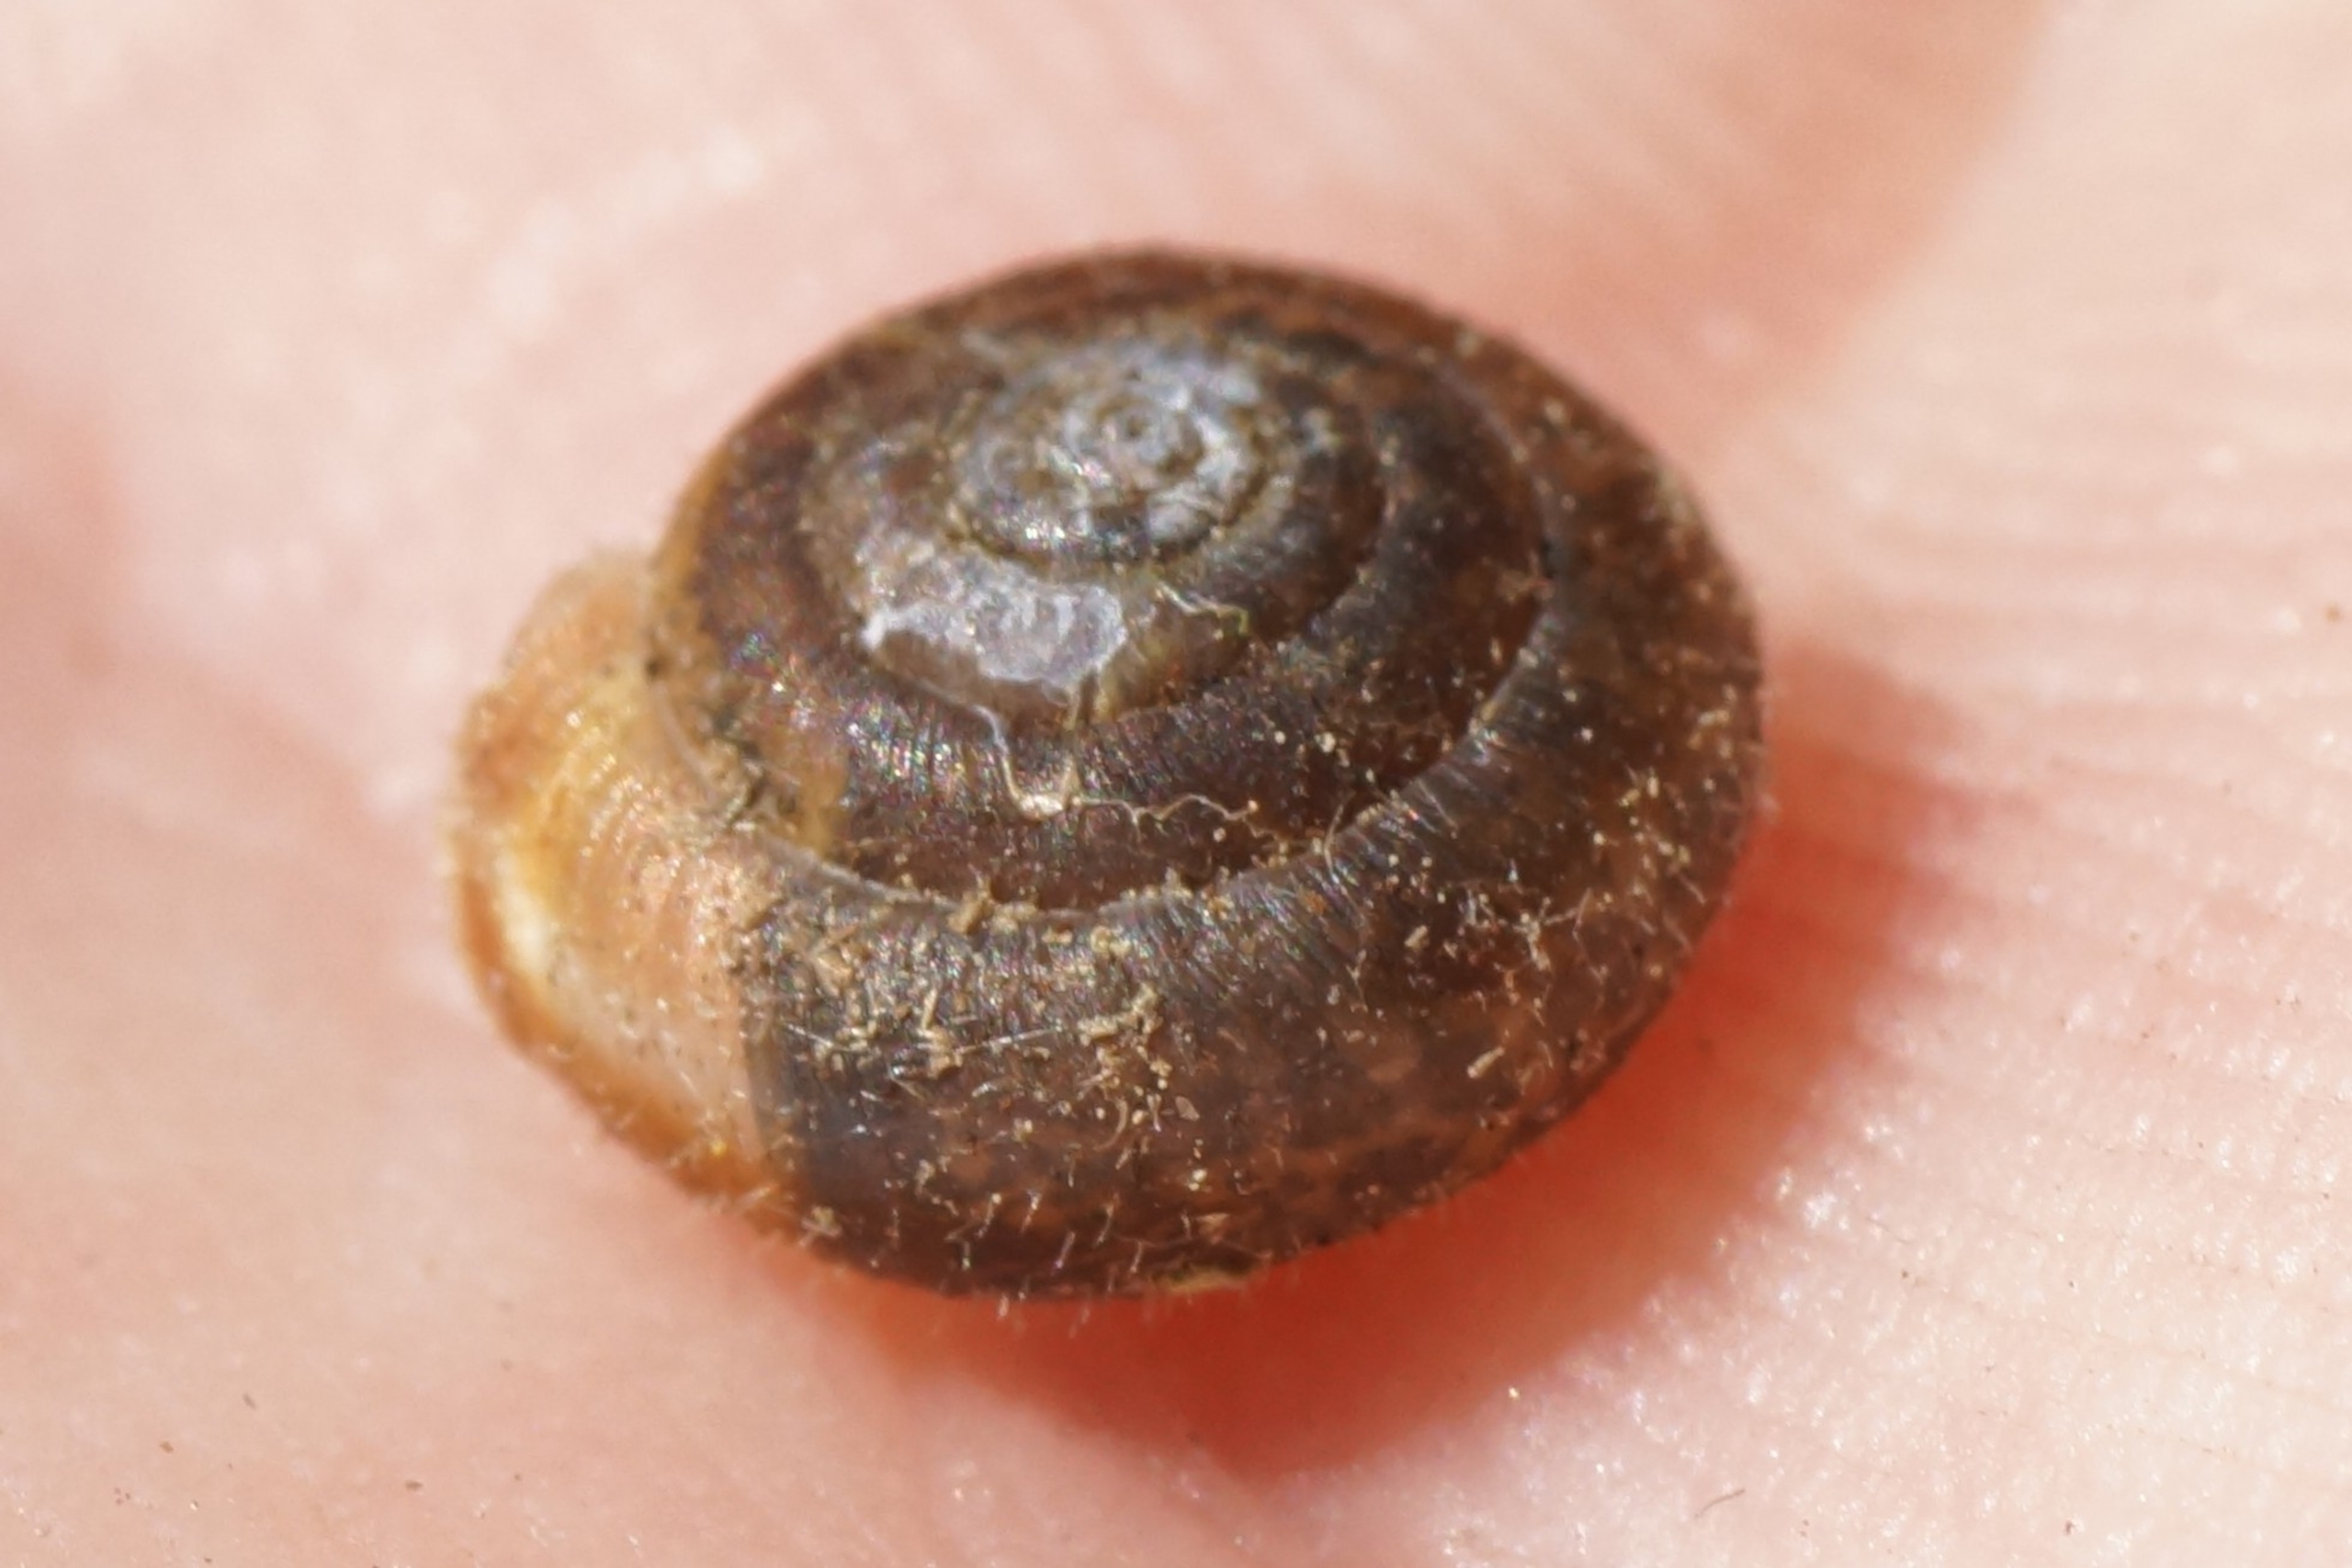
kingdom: Animalia
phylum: Mollusca
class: Gastropoda
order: Stylommatophora
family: Hygromiidae
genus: Trochulus
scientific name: Trochulus hispidus
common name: Håret snegl
